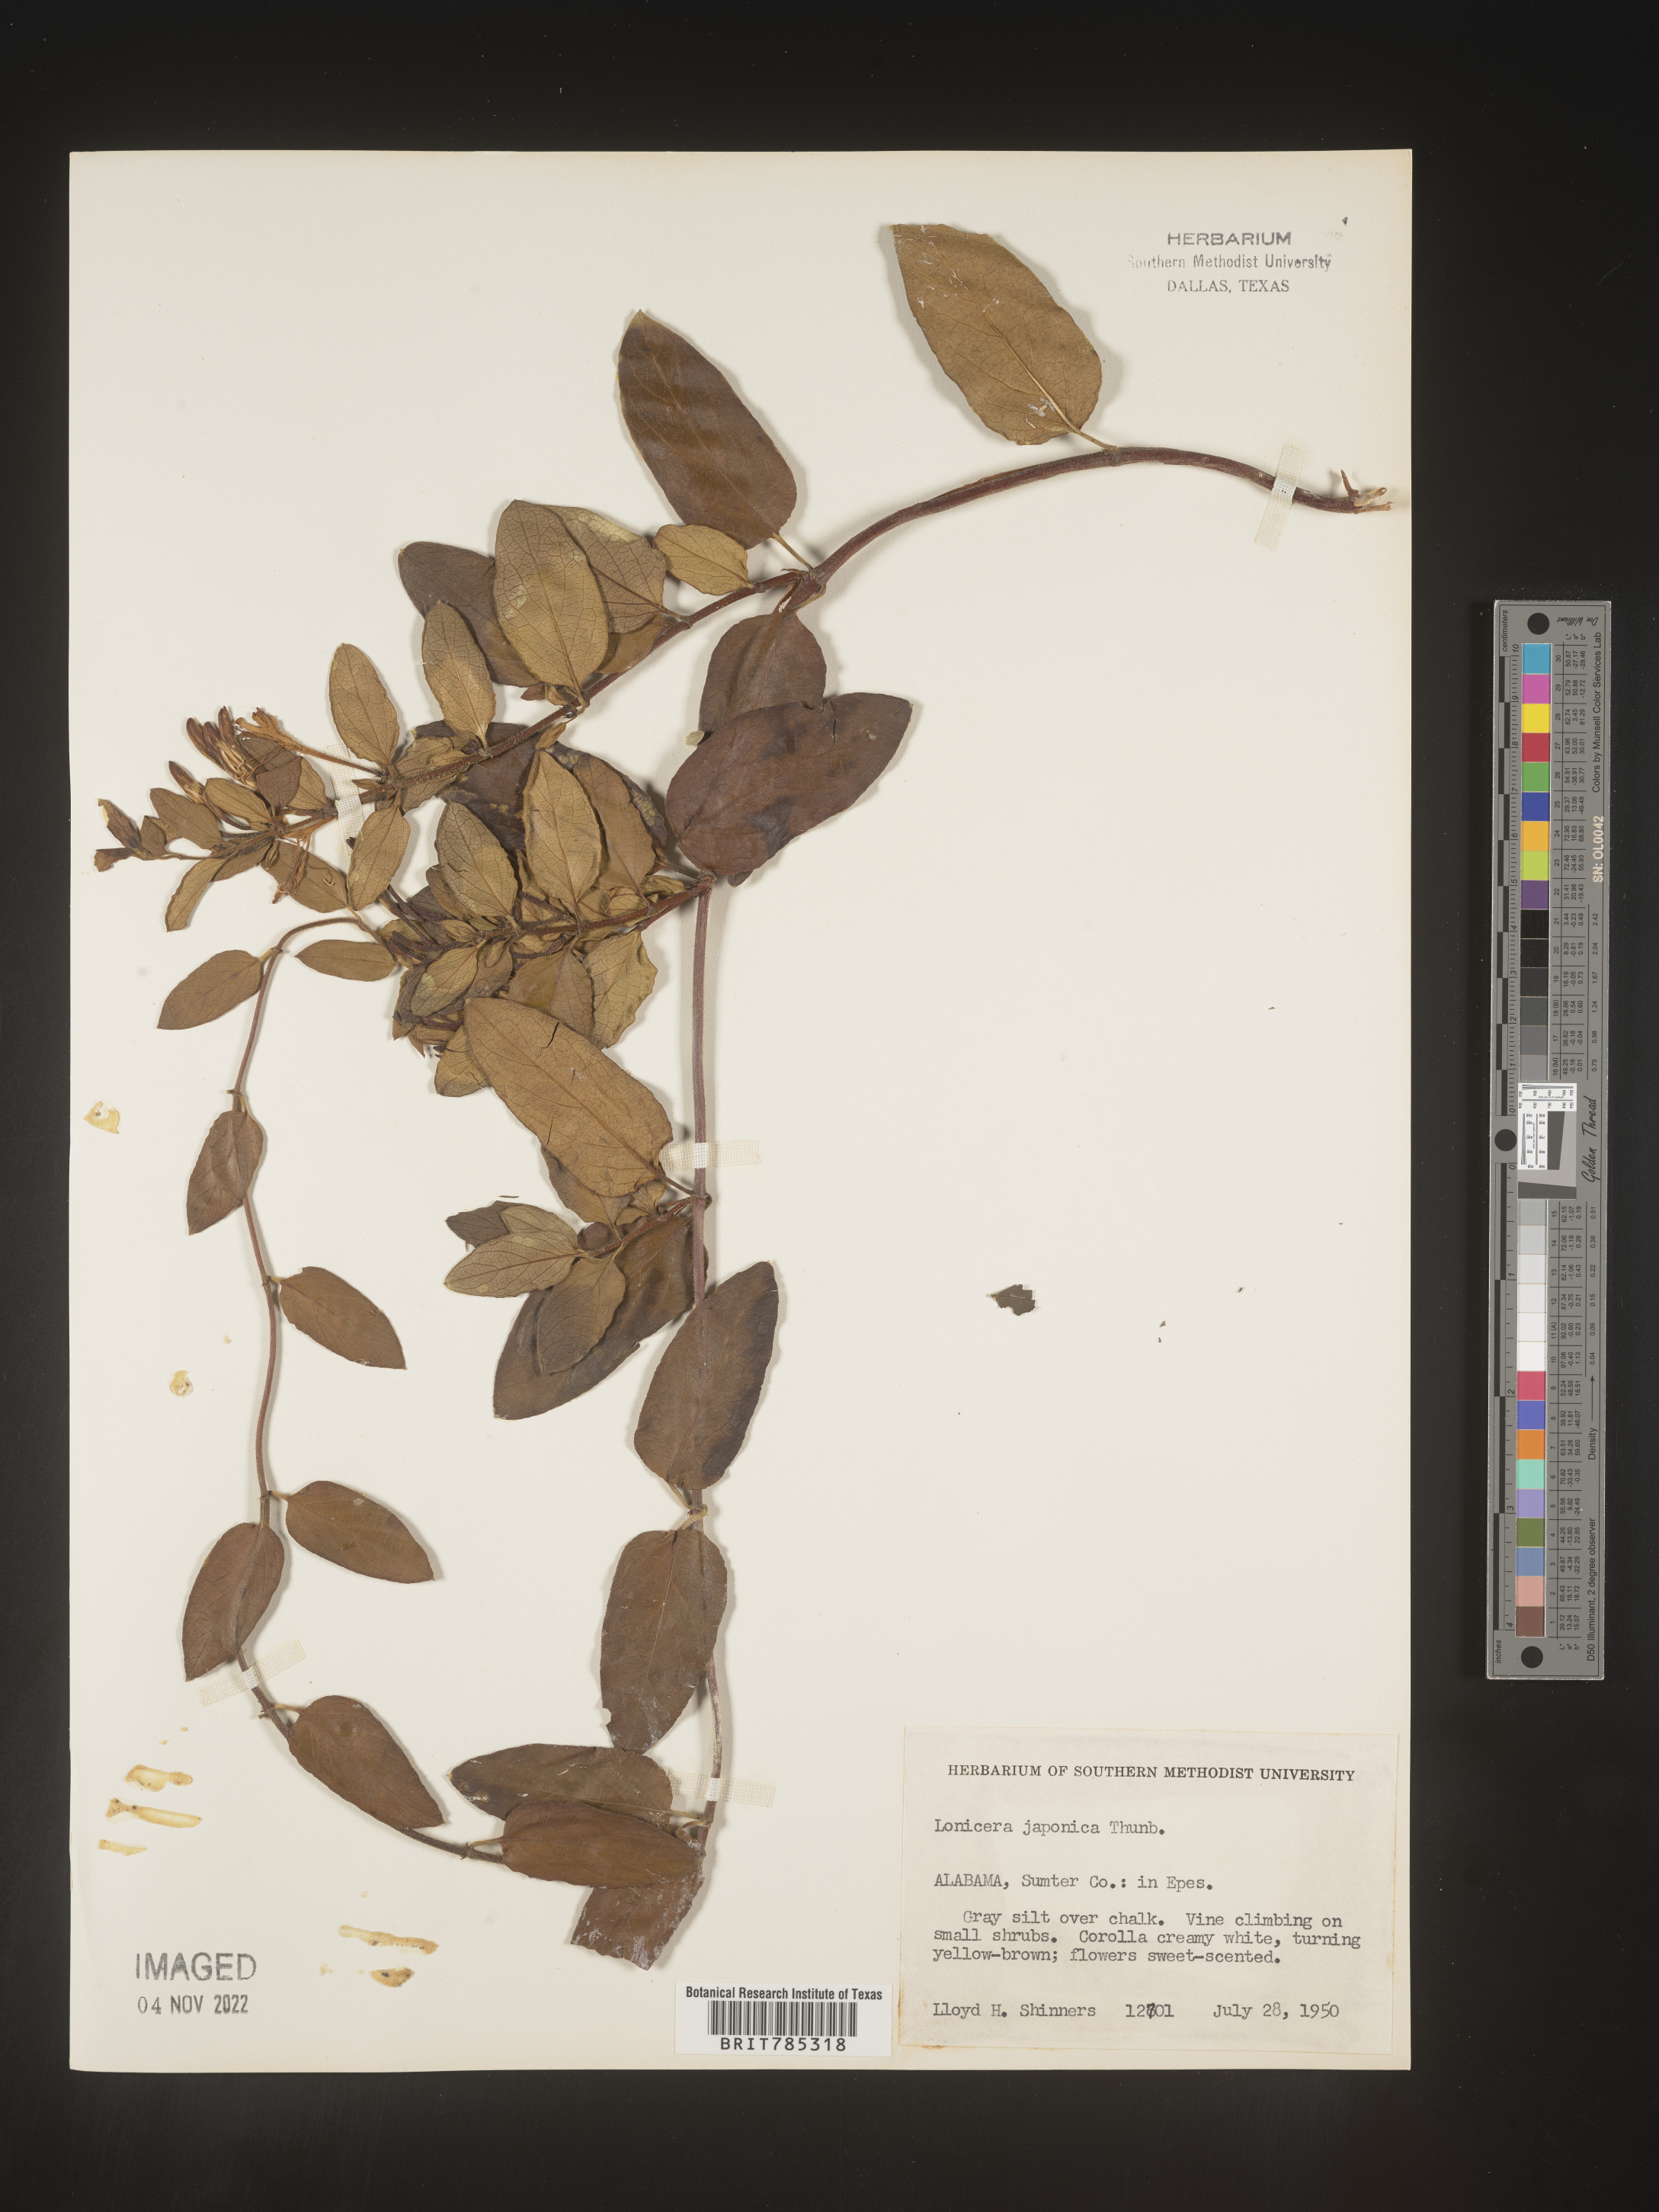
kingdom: Plantae
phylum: Tracheophyta
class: Magnoliopsida
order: Dipsacales
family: Caprifoliaceae
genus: Lonicera
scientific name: Lonicera japonica
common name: Japanese honeysuckle
